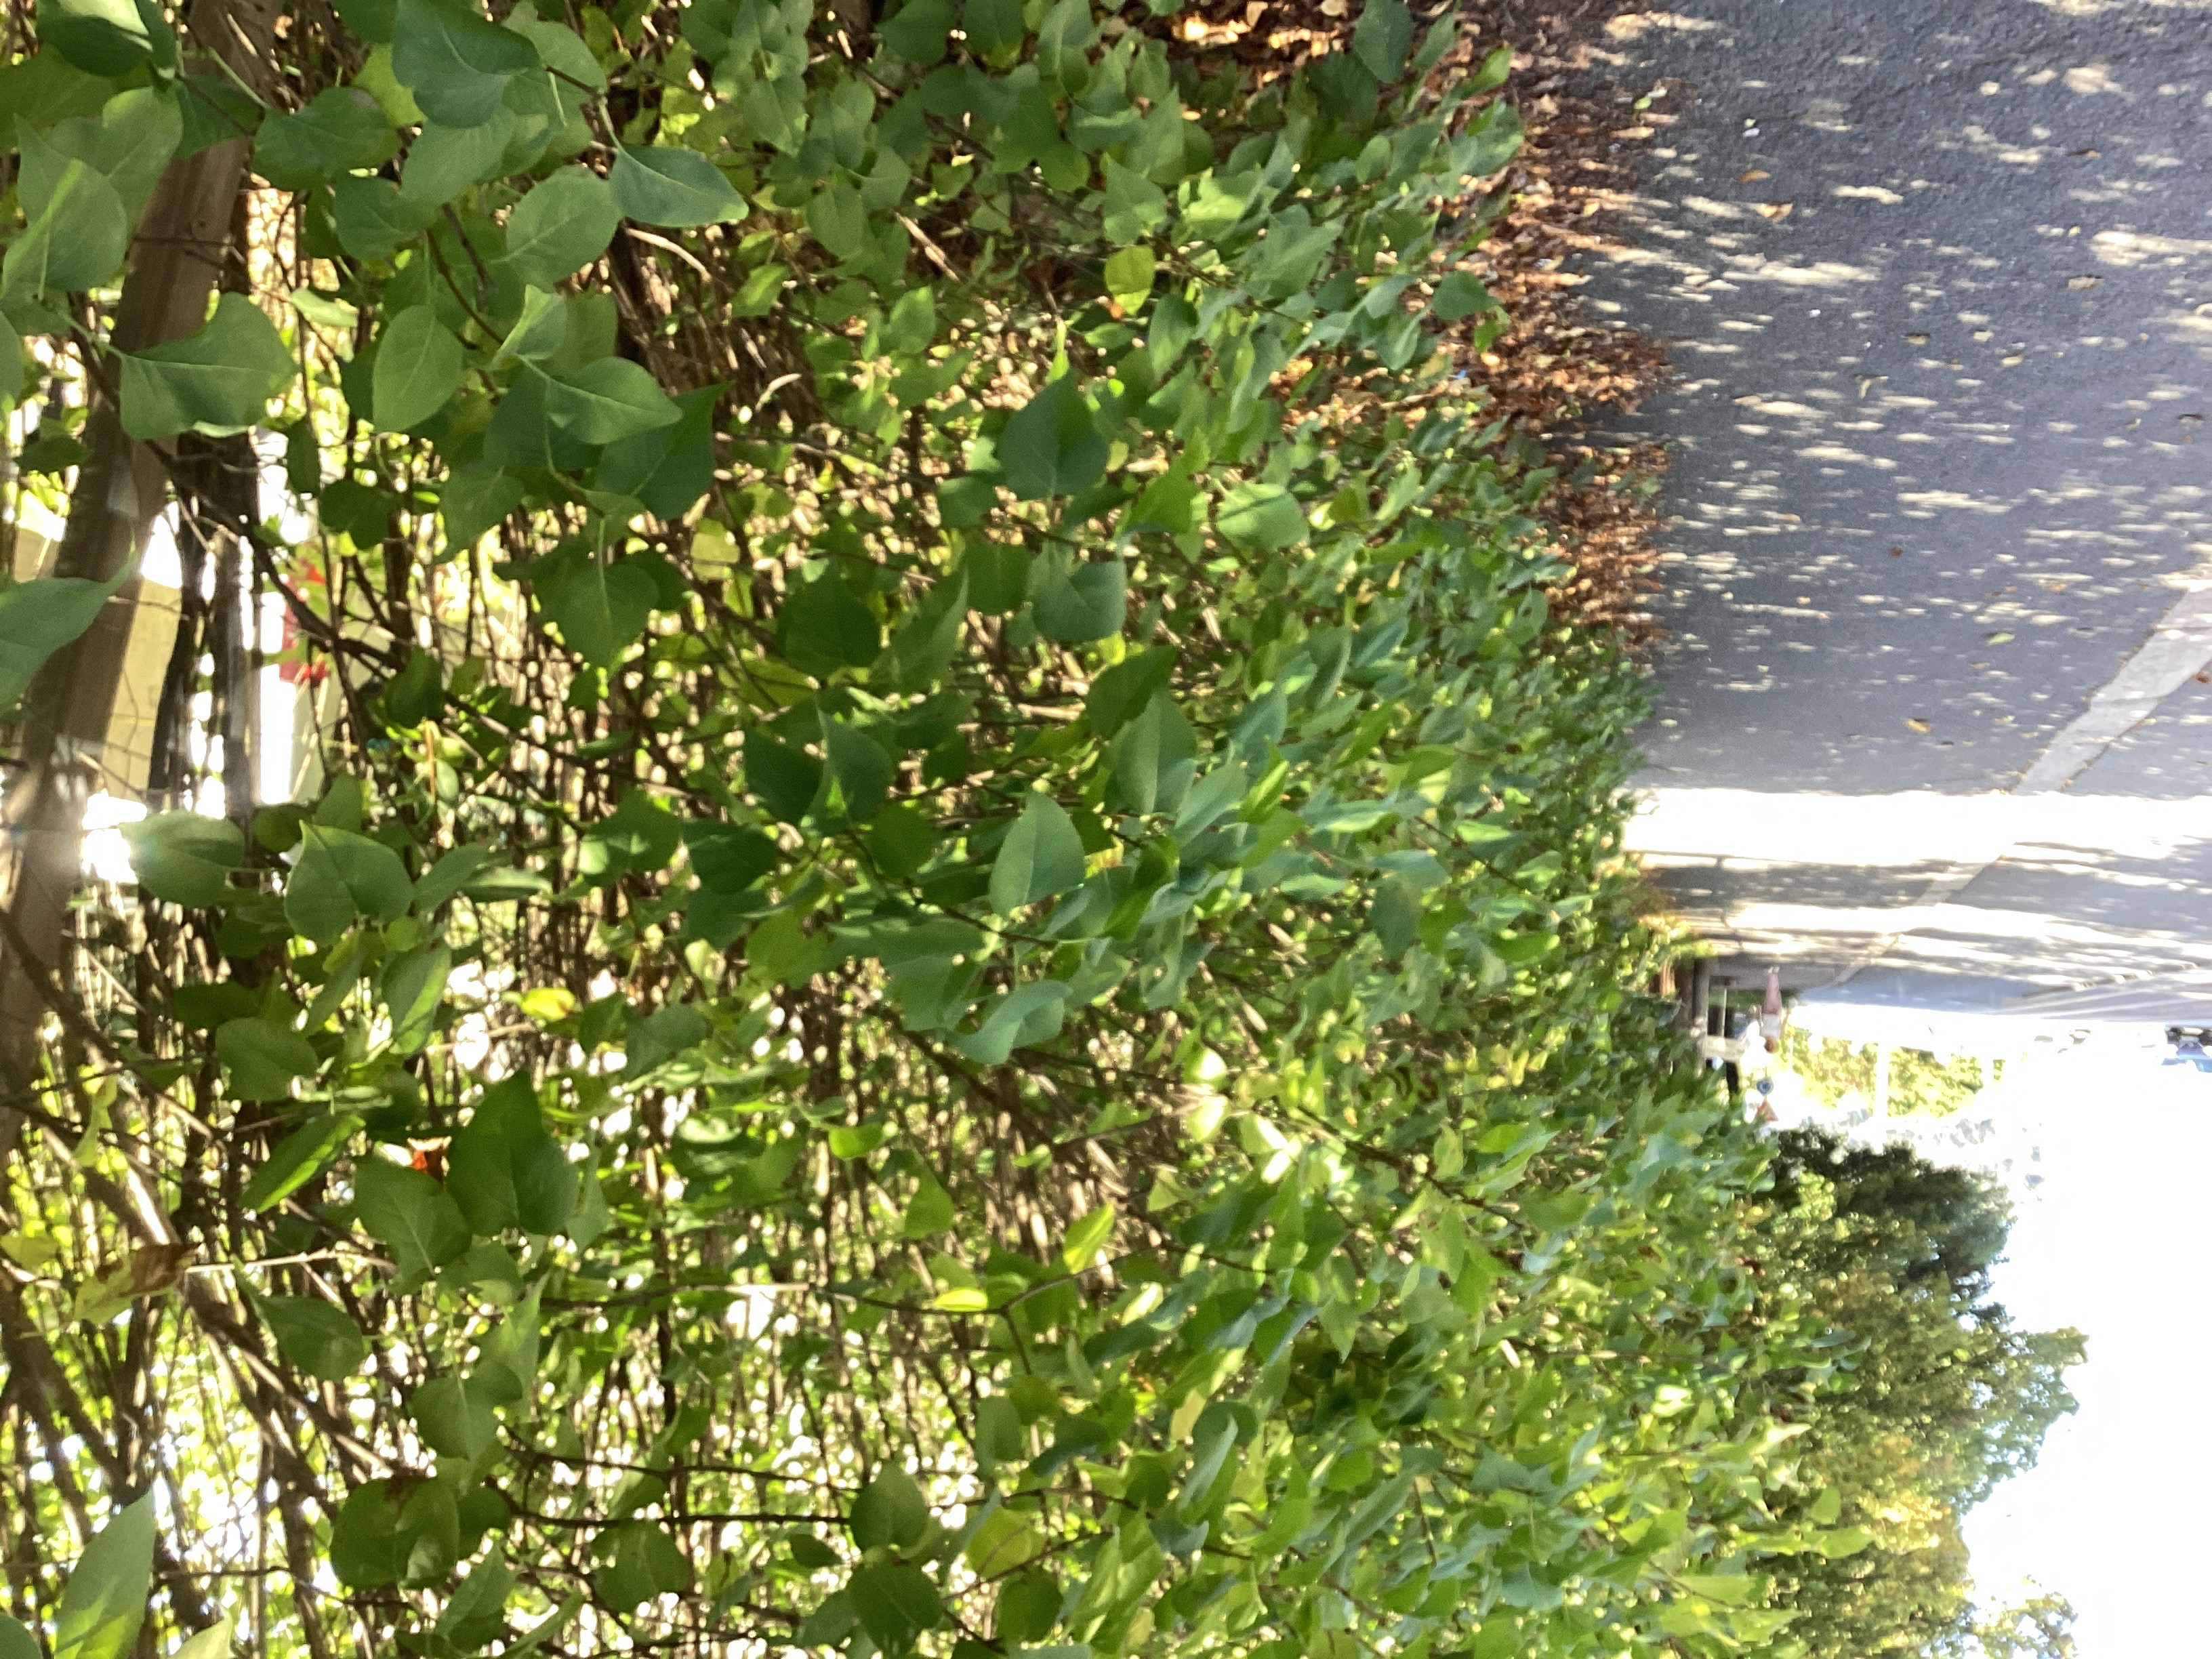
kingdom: Plantae
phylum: Tracheophyta
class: Magnoliopsida
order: Lamiales
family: Oleaceae
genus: Syringa
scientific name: Syringa vulgaris
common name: syrin
